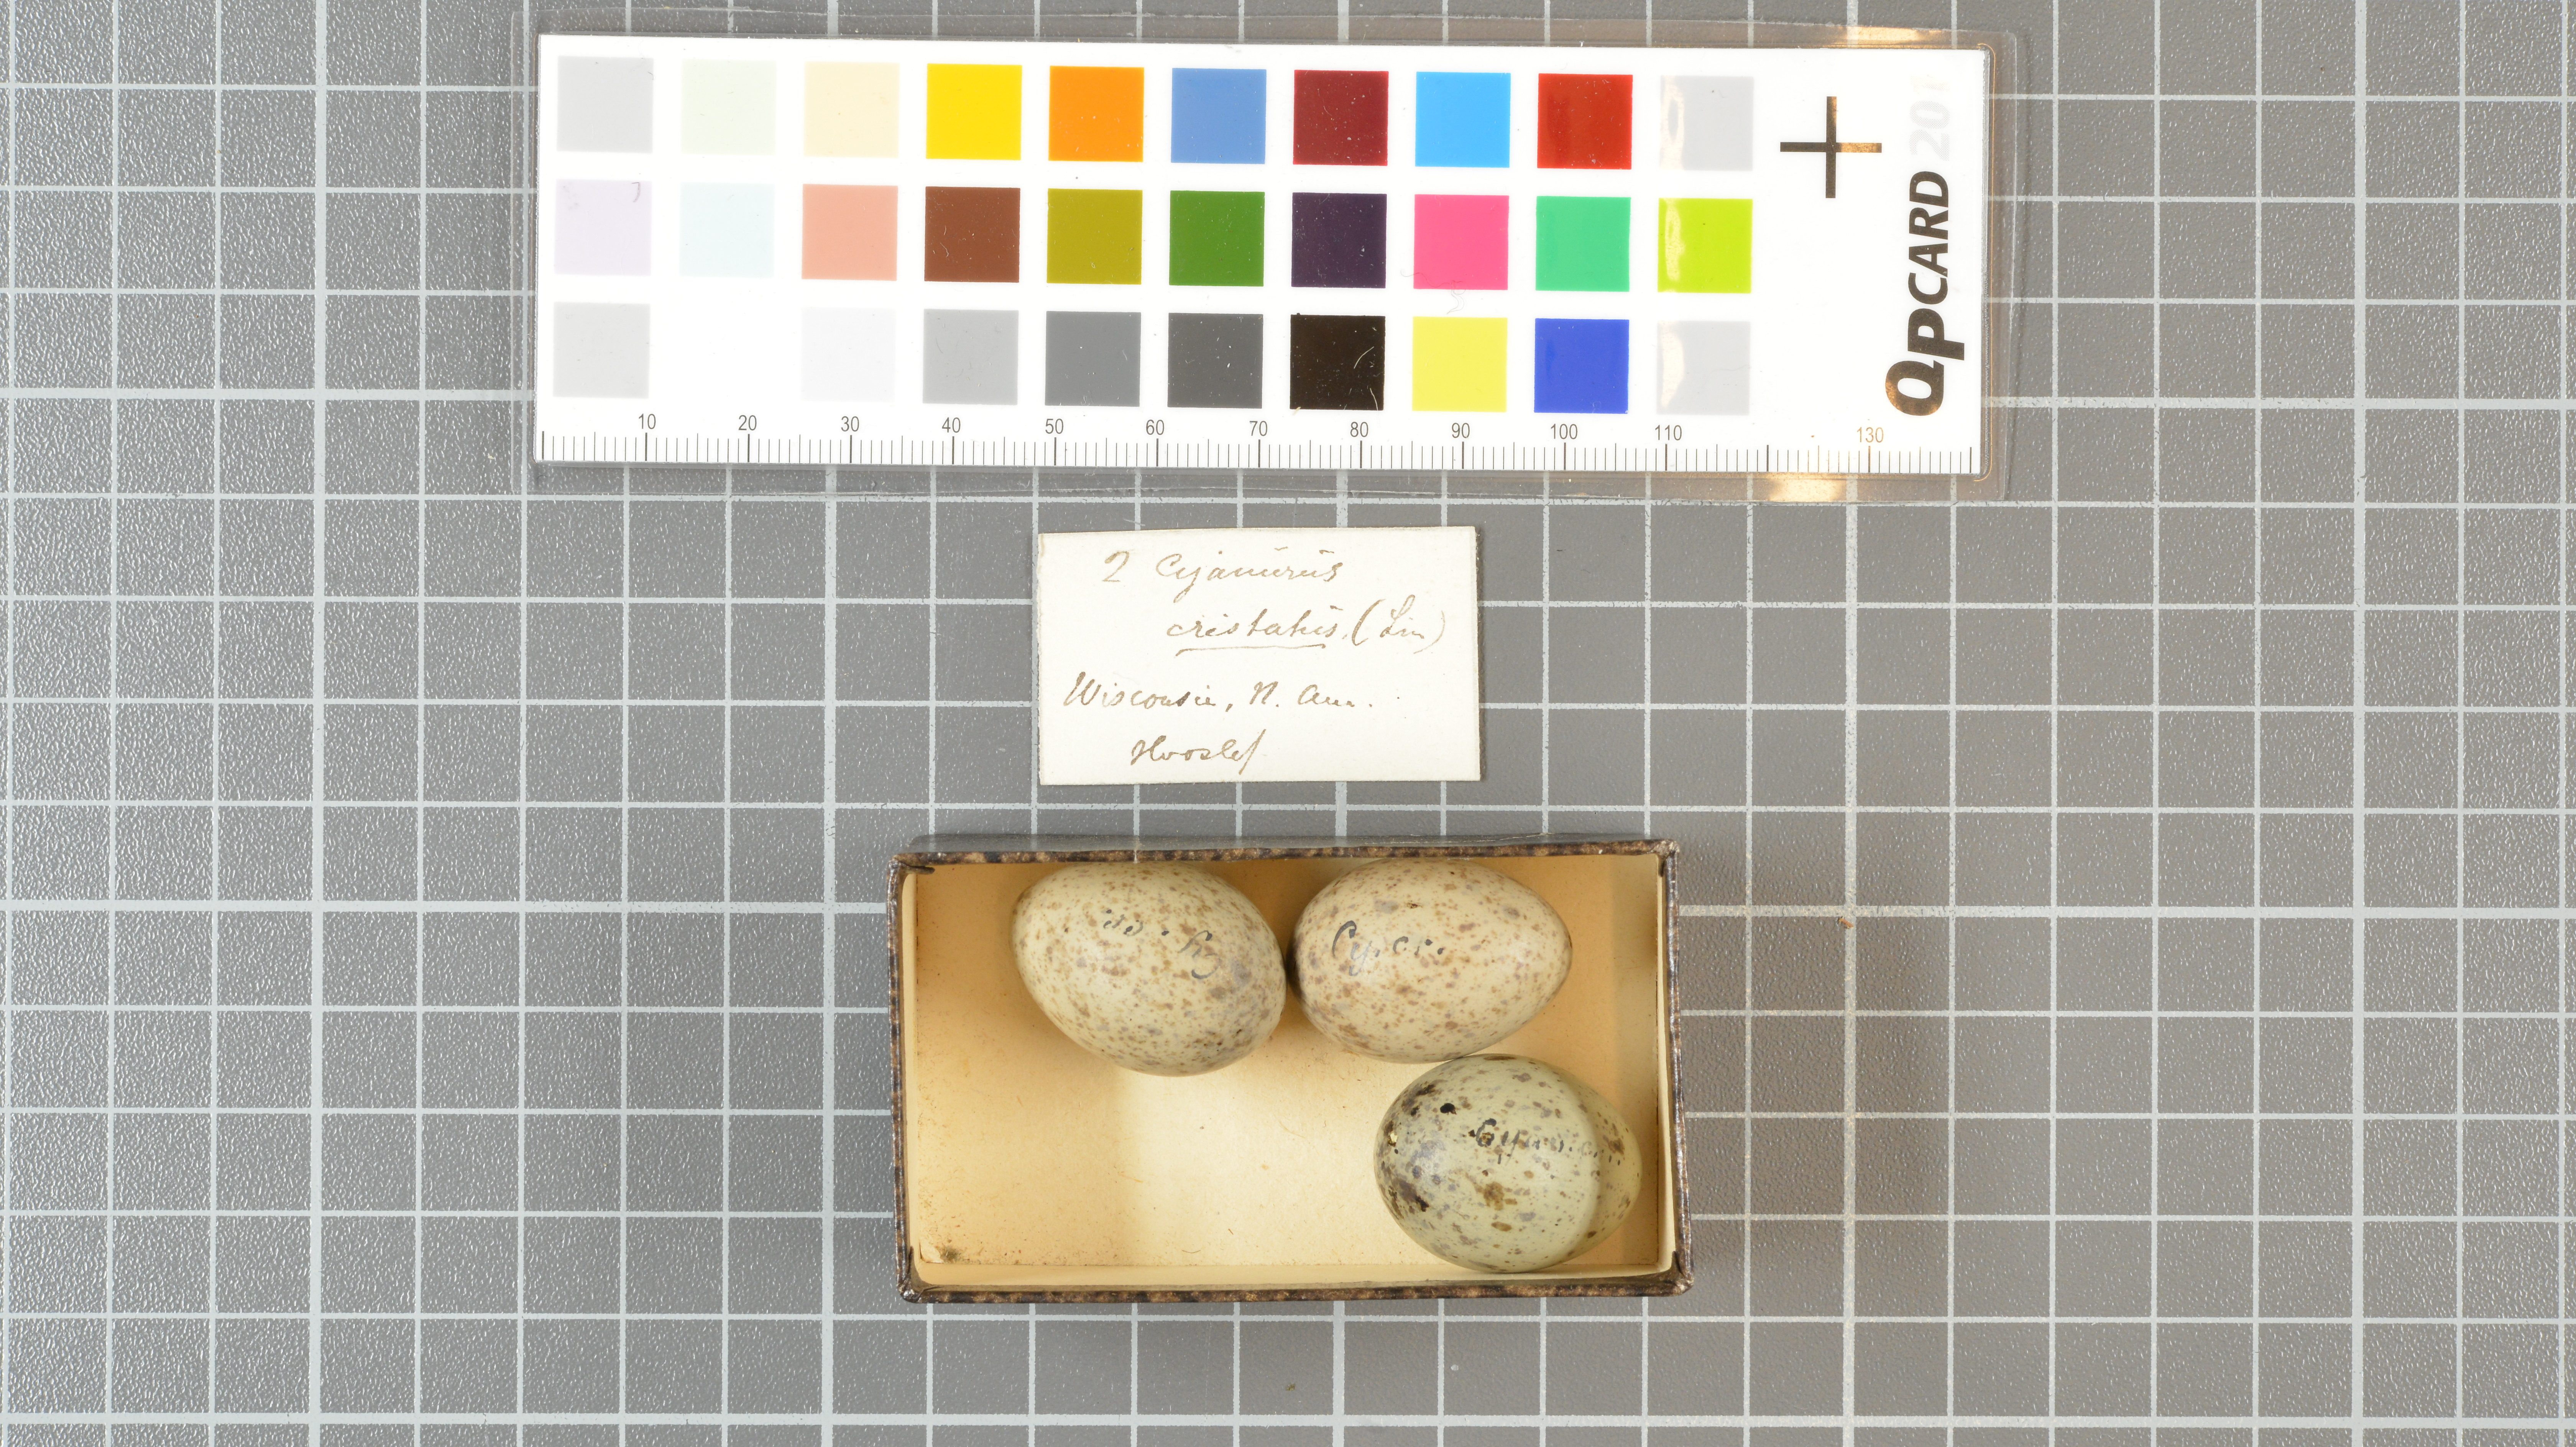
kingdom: Animalia
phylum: Chordata
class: Aves
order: Passeriformes
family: Corvidae
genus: Cyanocitta
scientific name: Cyanocitta cristata
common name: Blue jay
